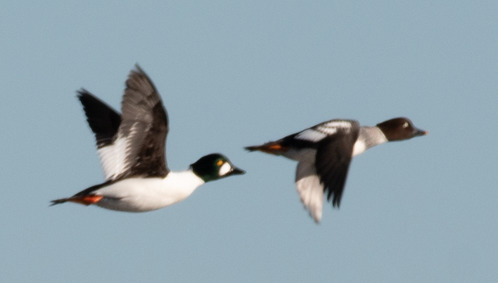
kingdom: Animalia
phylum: Chordata
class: Aves
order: Anseriformes
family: Anatidae
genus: Bucephala
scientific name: Bucephala clangula
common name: Hvinand
